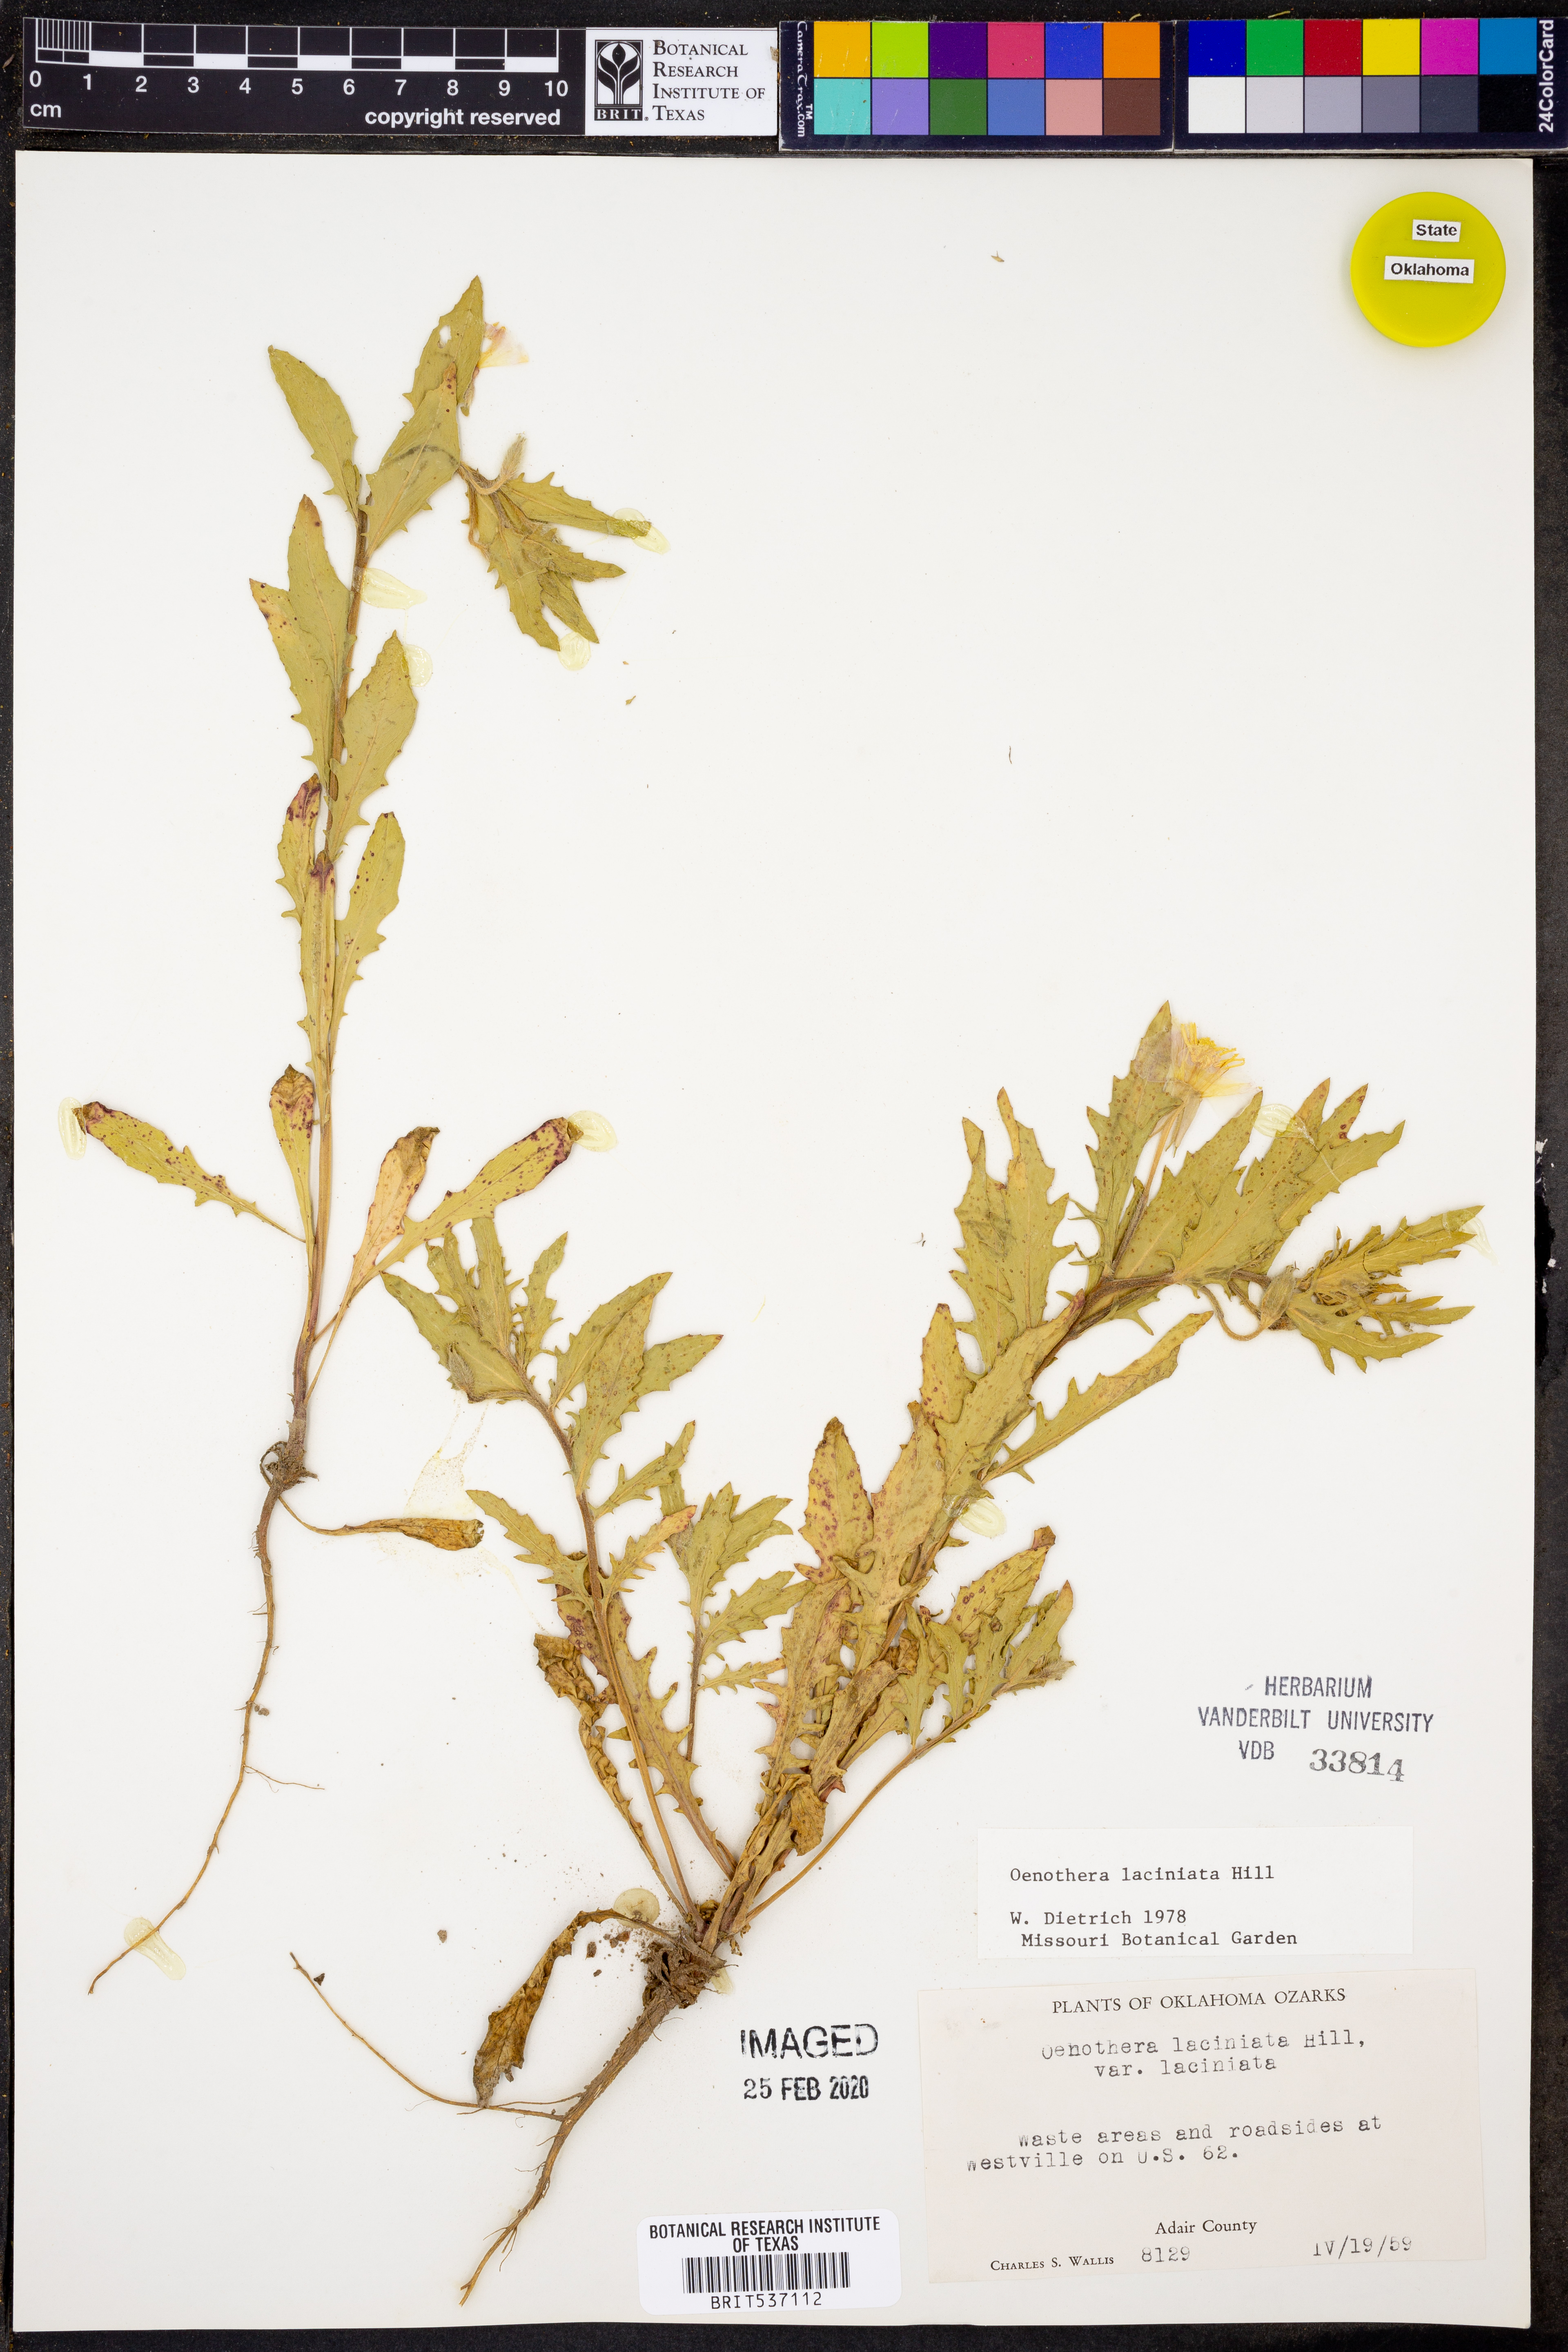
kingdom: Plantae
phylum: Tracheophyta
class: Magnoliopsida
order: Myrtales
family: Onagraceae
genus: Oenothera
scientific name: Oenothera laciniata
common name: Cut-leaved evening-primrose
